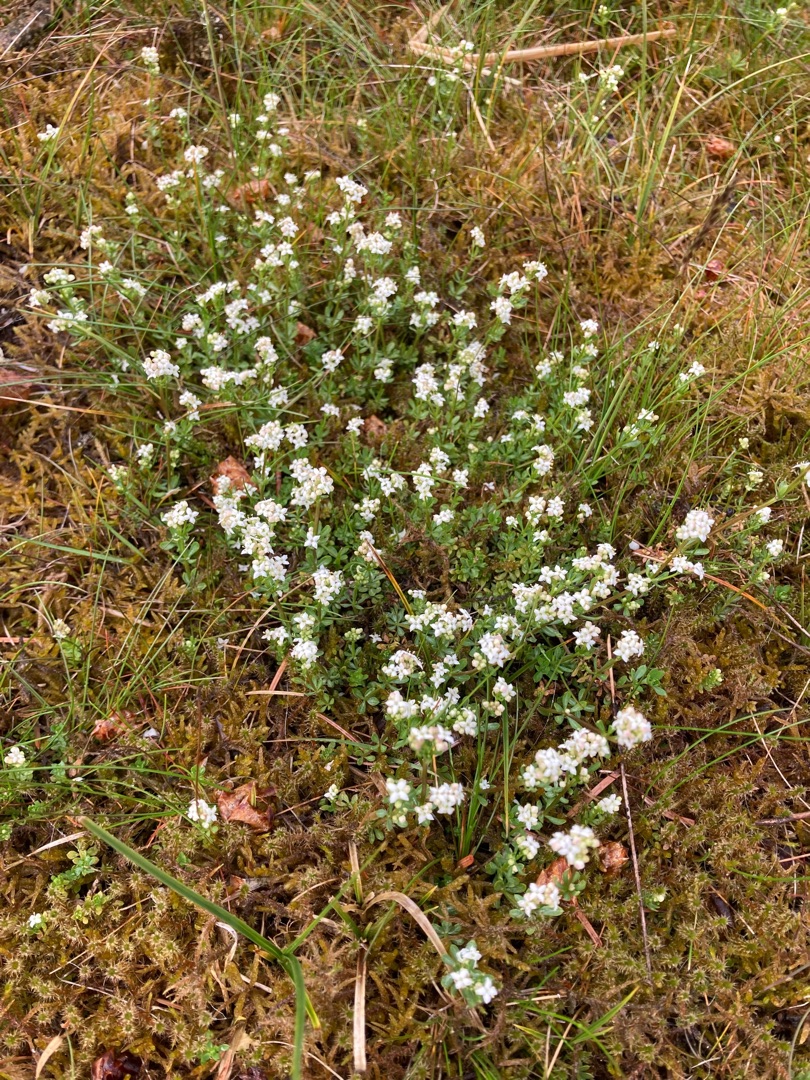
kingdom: Plantae
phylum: Tracheophyta
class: Magnoliopsida
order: Gentianales
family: Rubiaceae
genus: Galium
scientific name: Galium saxatile
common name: Lyng-snerre
